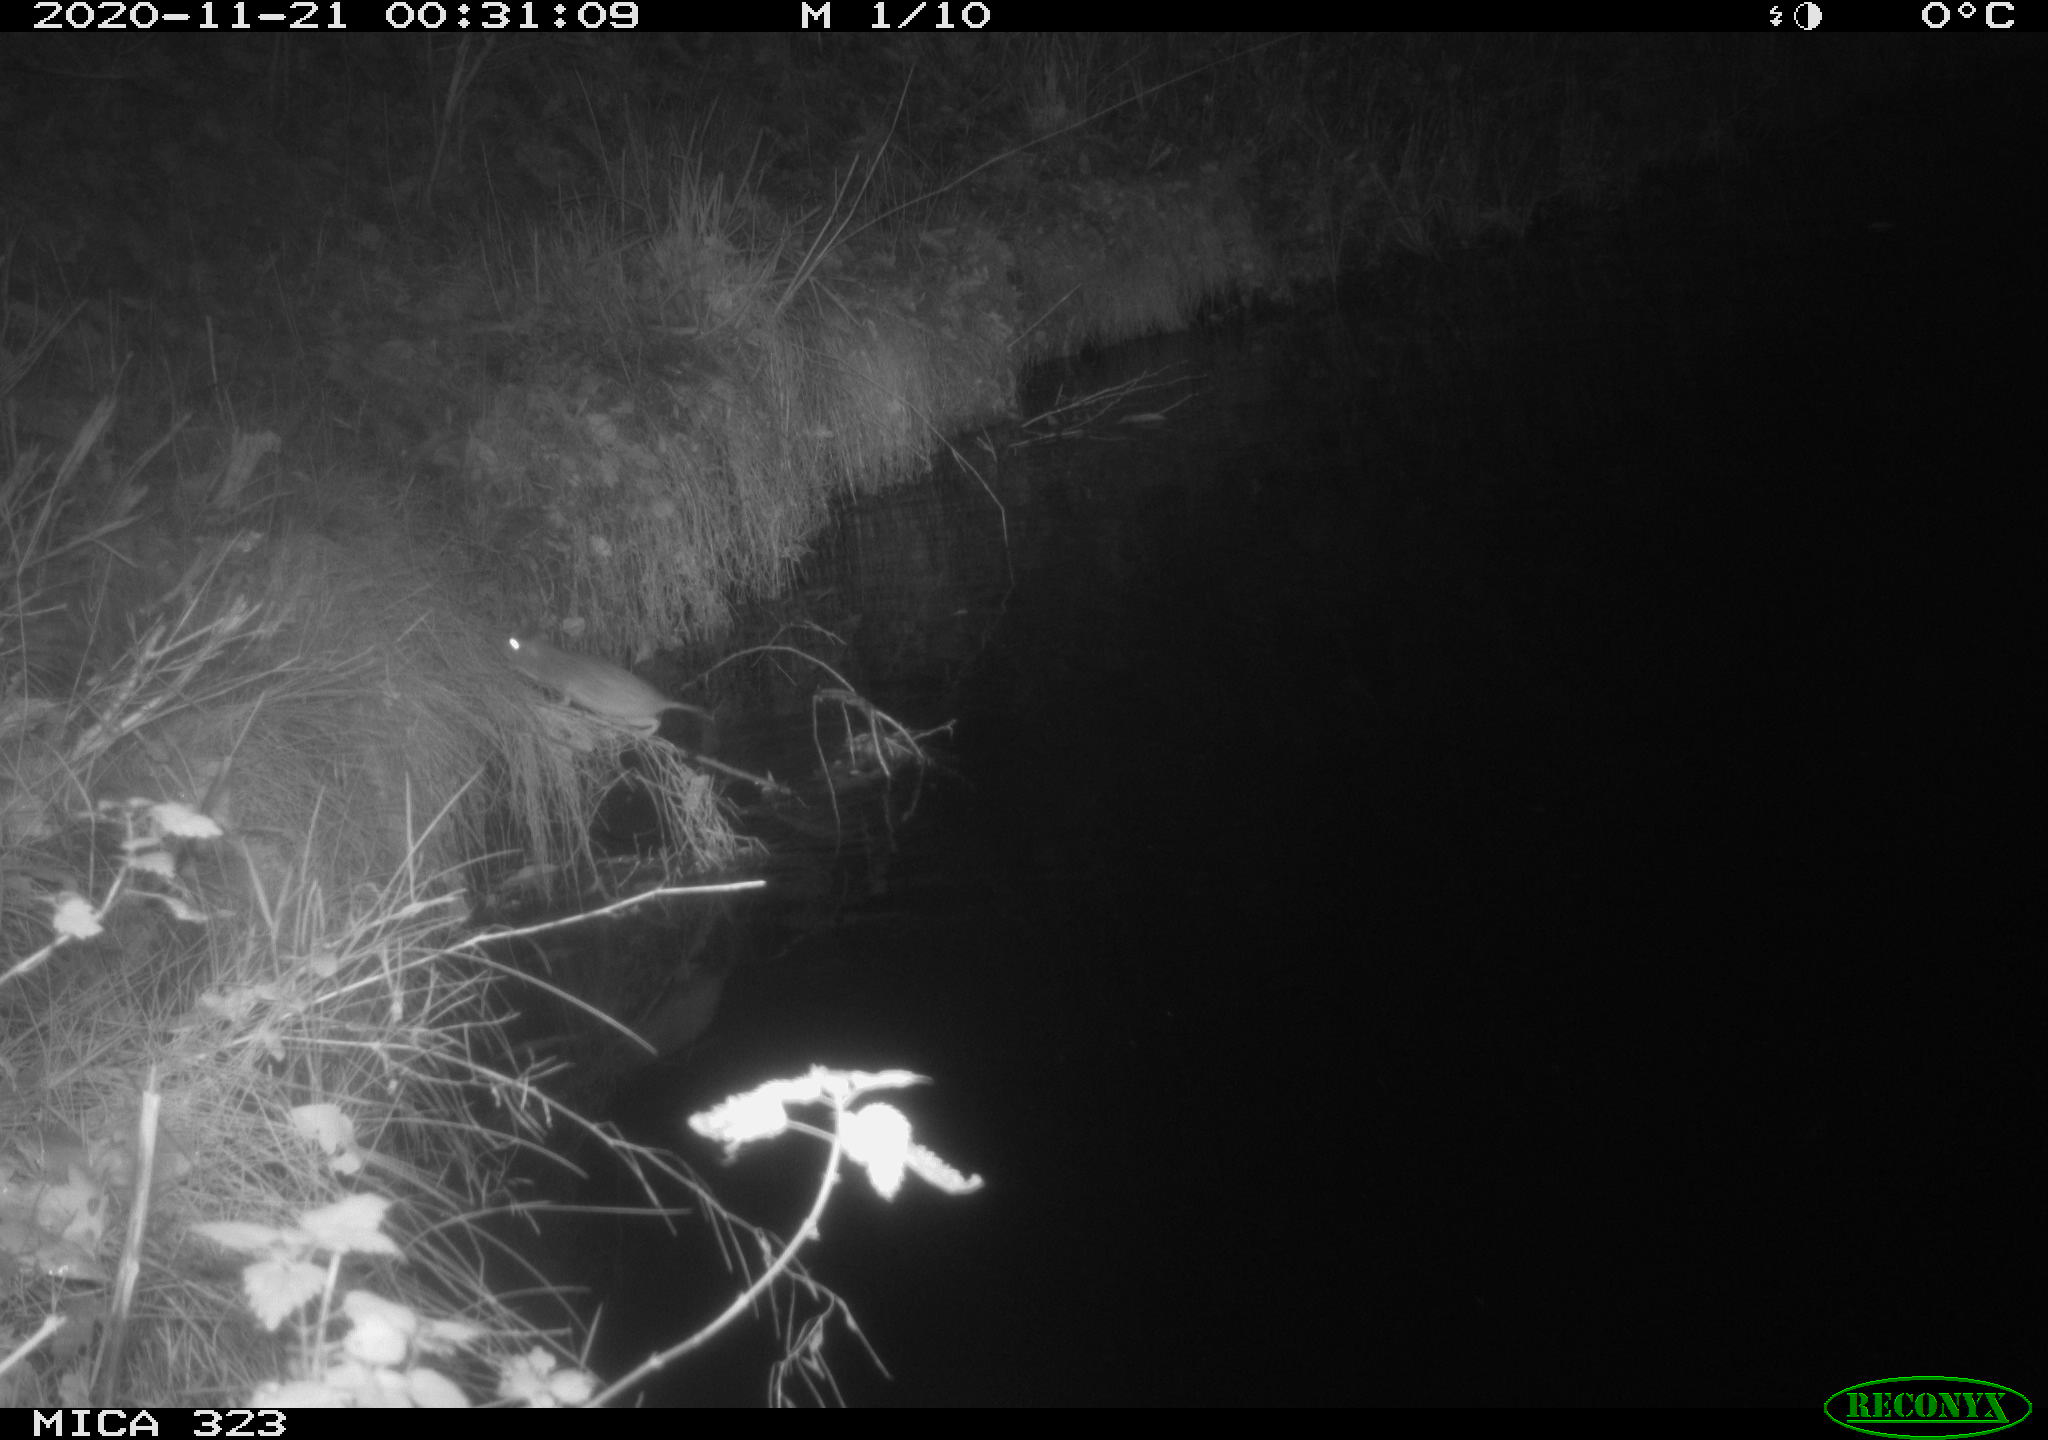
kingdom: Animalia
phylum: Chordata
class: Mammalia
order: Rodentia
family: Muridae
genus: Rattus
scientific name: Rattus norvegicus
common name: Brown rat
